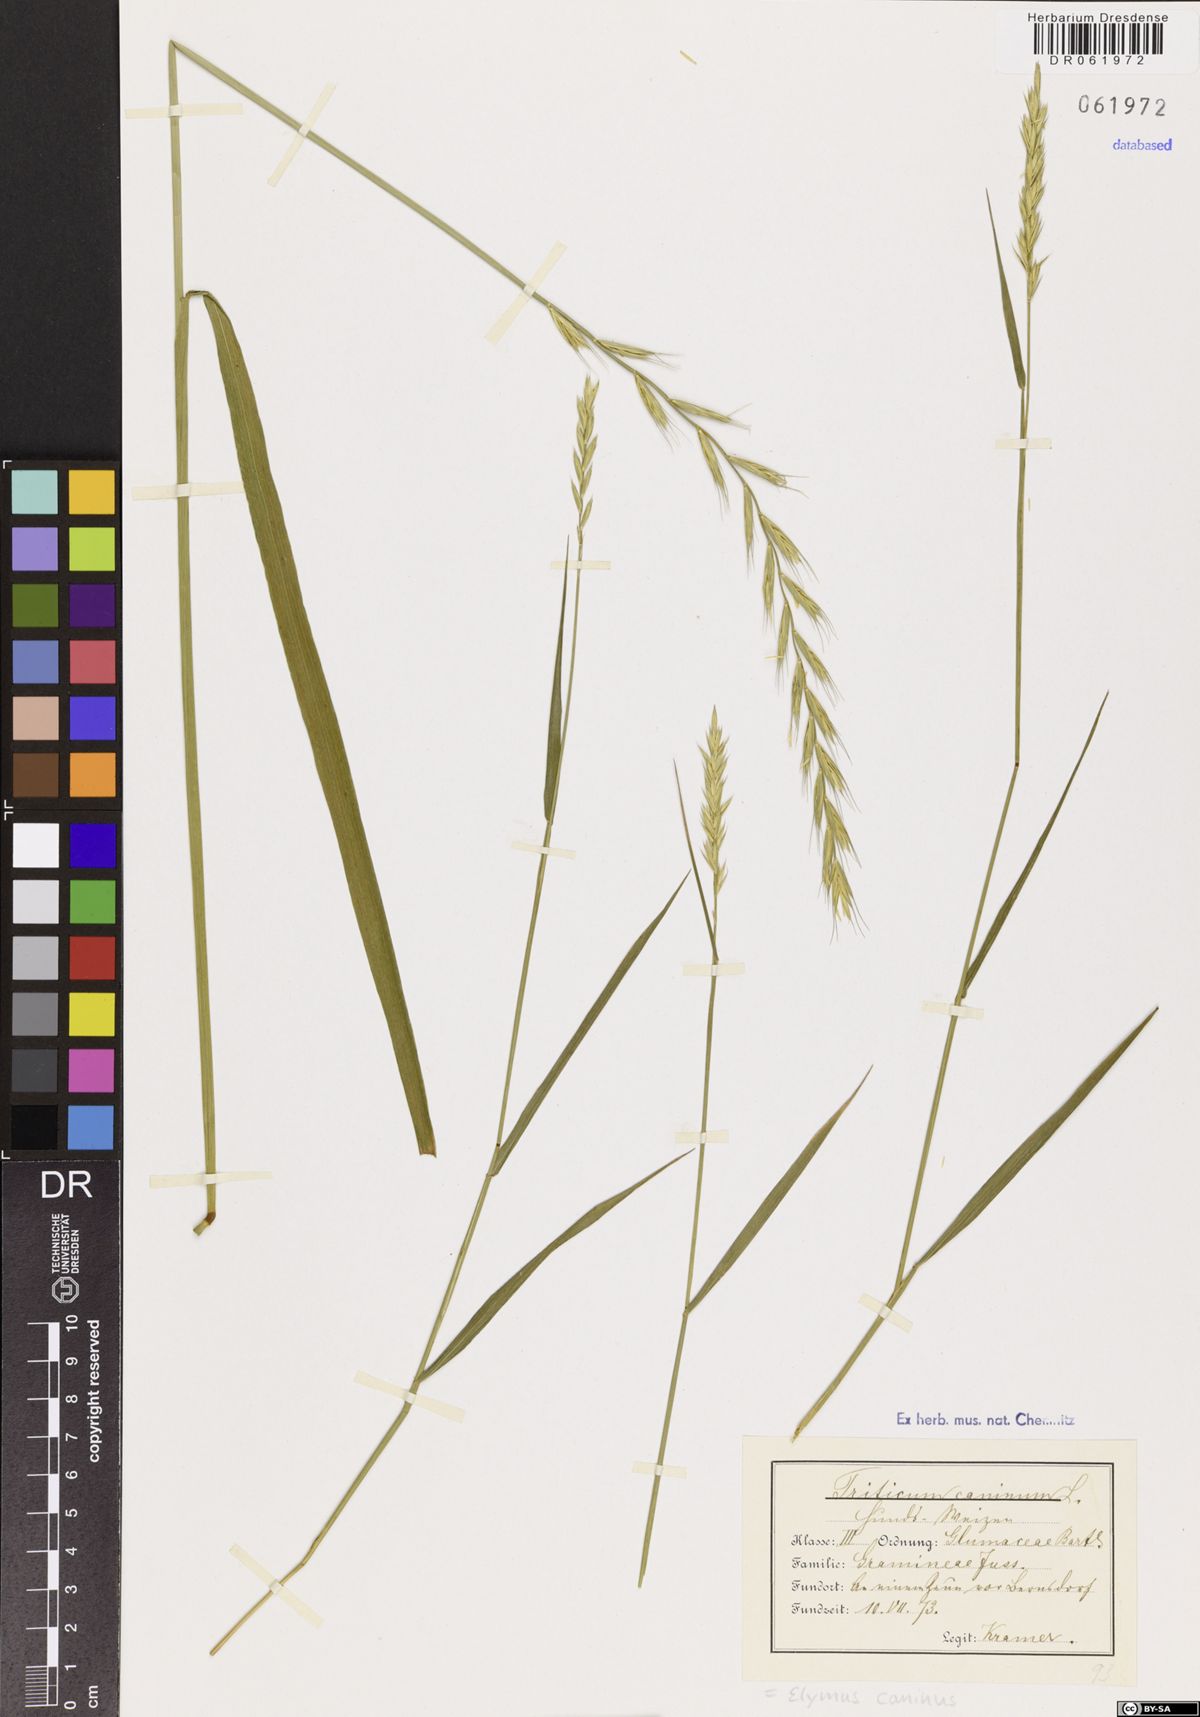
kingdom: Plantae
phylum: Tracheophyta
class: Liliopsida
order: Poales
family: Poaceae
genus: Elymus
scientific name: Elymus caninus
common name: Bearded couch
